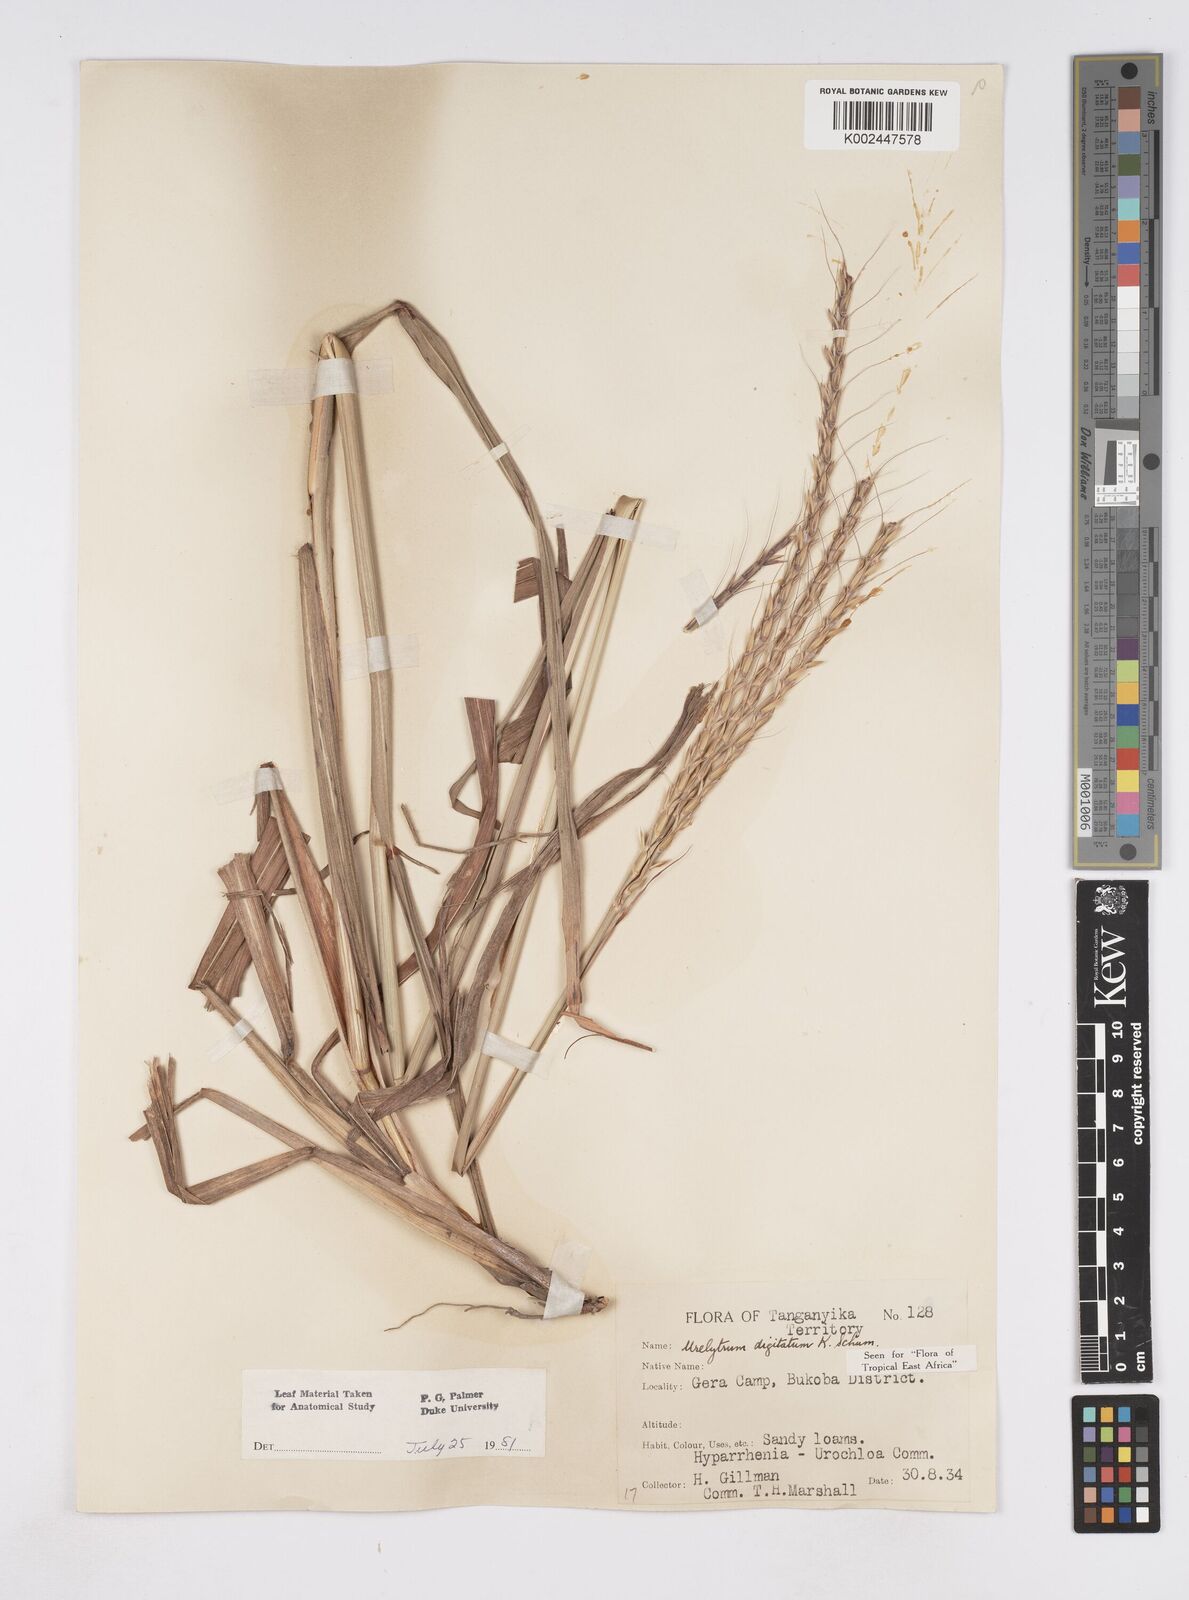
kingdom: Plantae
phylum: Tracheophyta
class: Liliopsida
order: Poales
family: Poaceae
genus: Urelytrum
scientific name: Urelytrum digitatum
